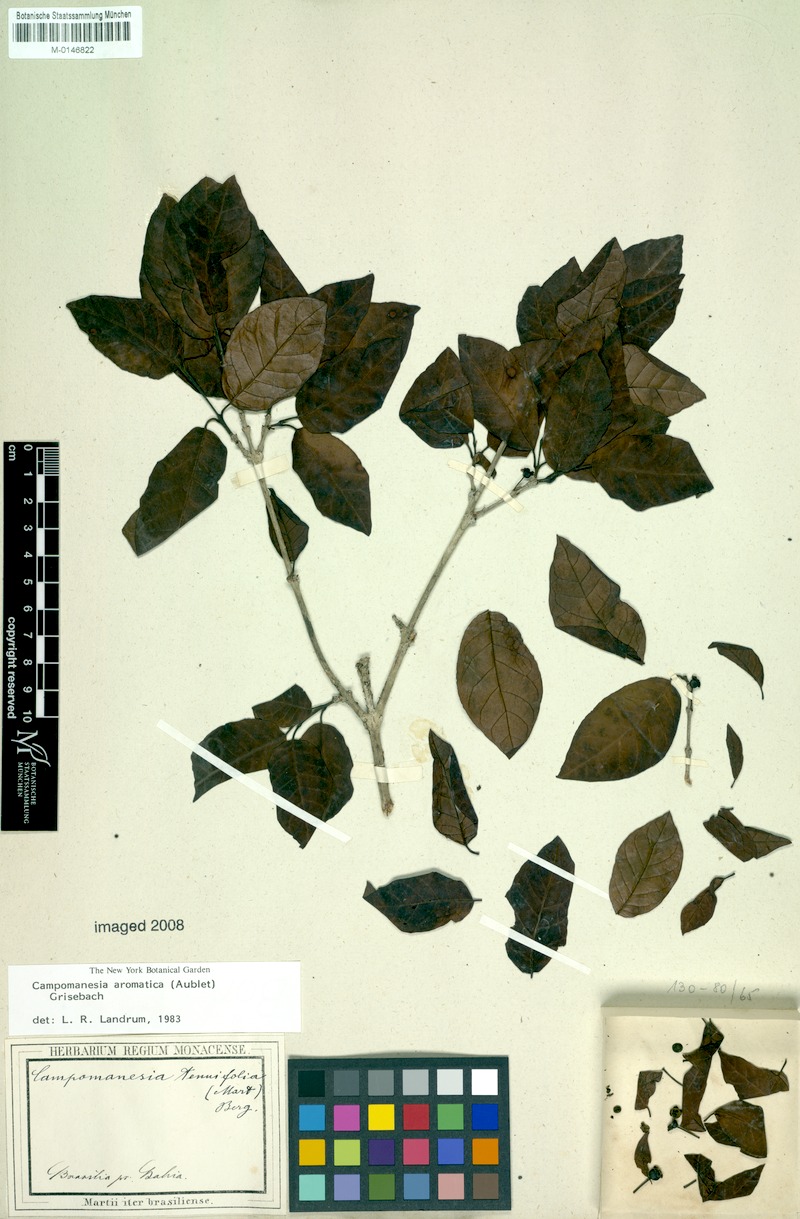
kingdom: Plantae
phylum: Tracheophyta
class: Magnoliopsida
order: Myrtales
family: Myrtaceae
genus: Campomanesia
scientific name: Campomanesia aromatica
